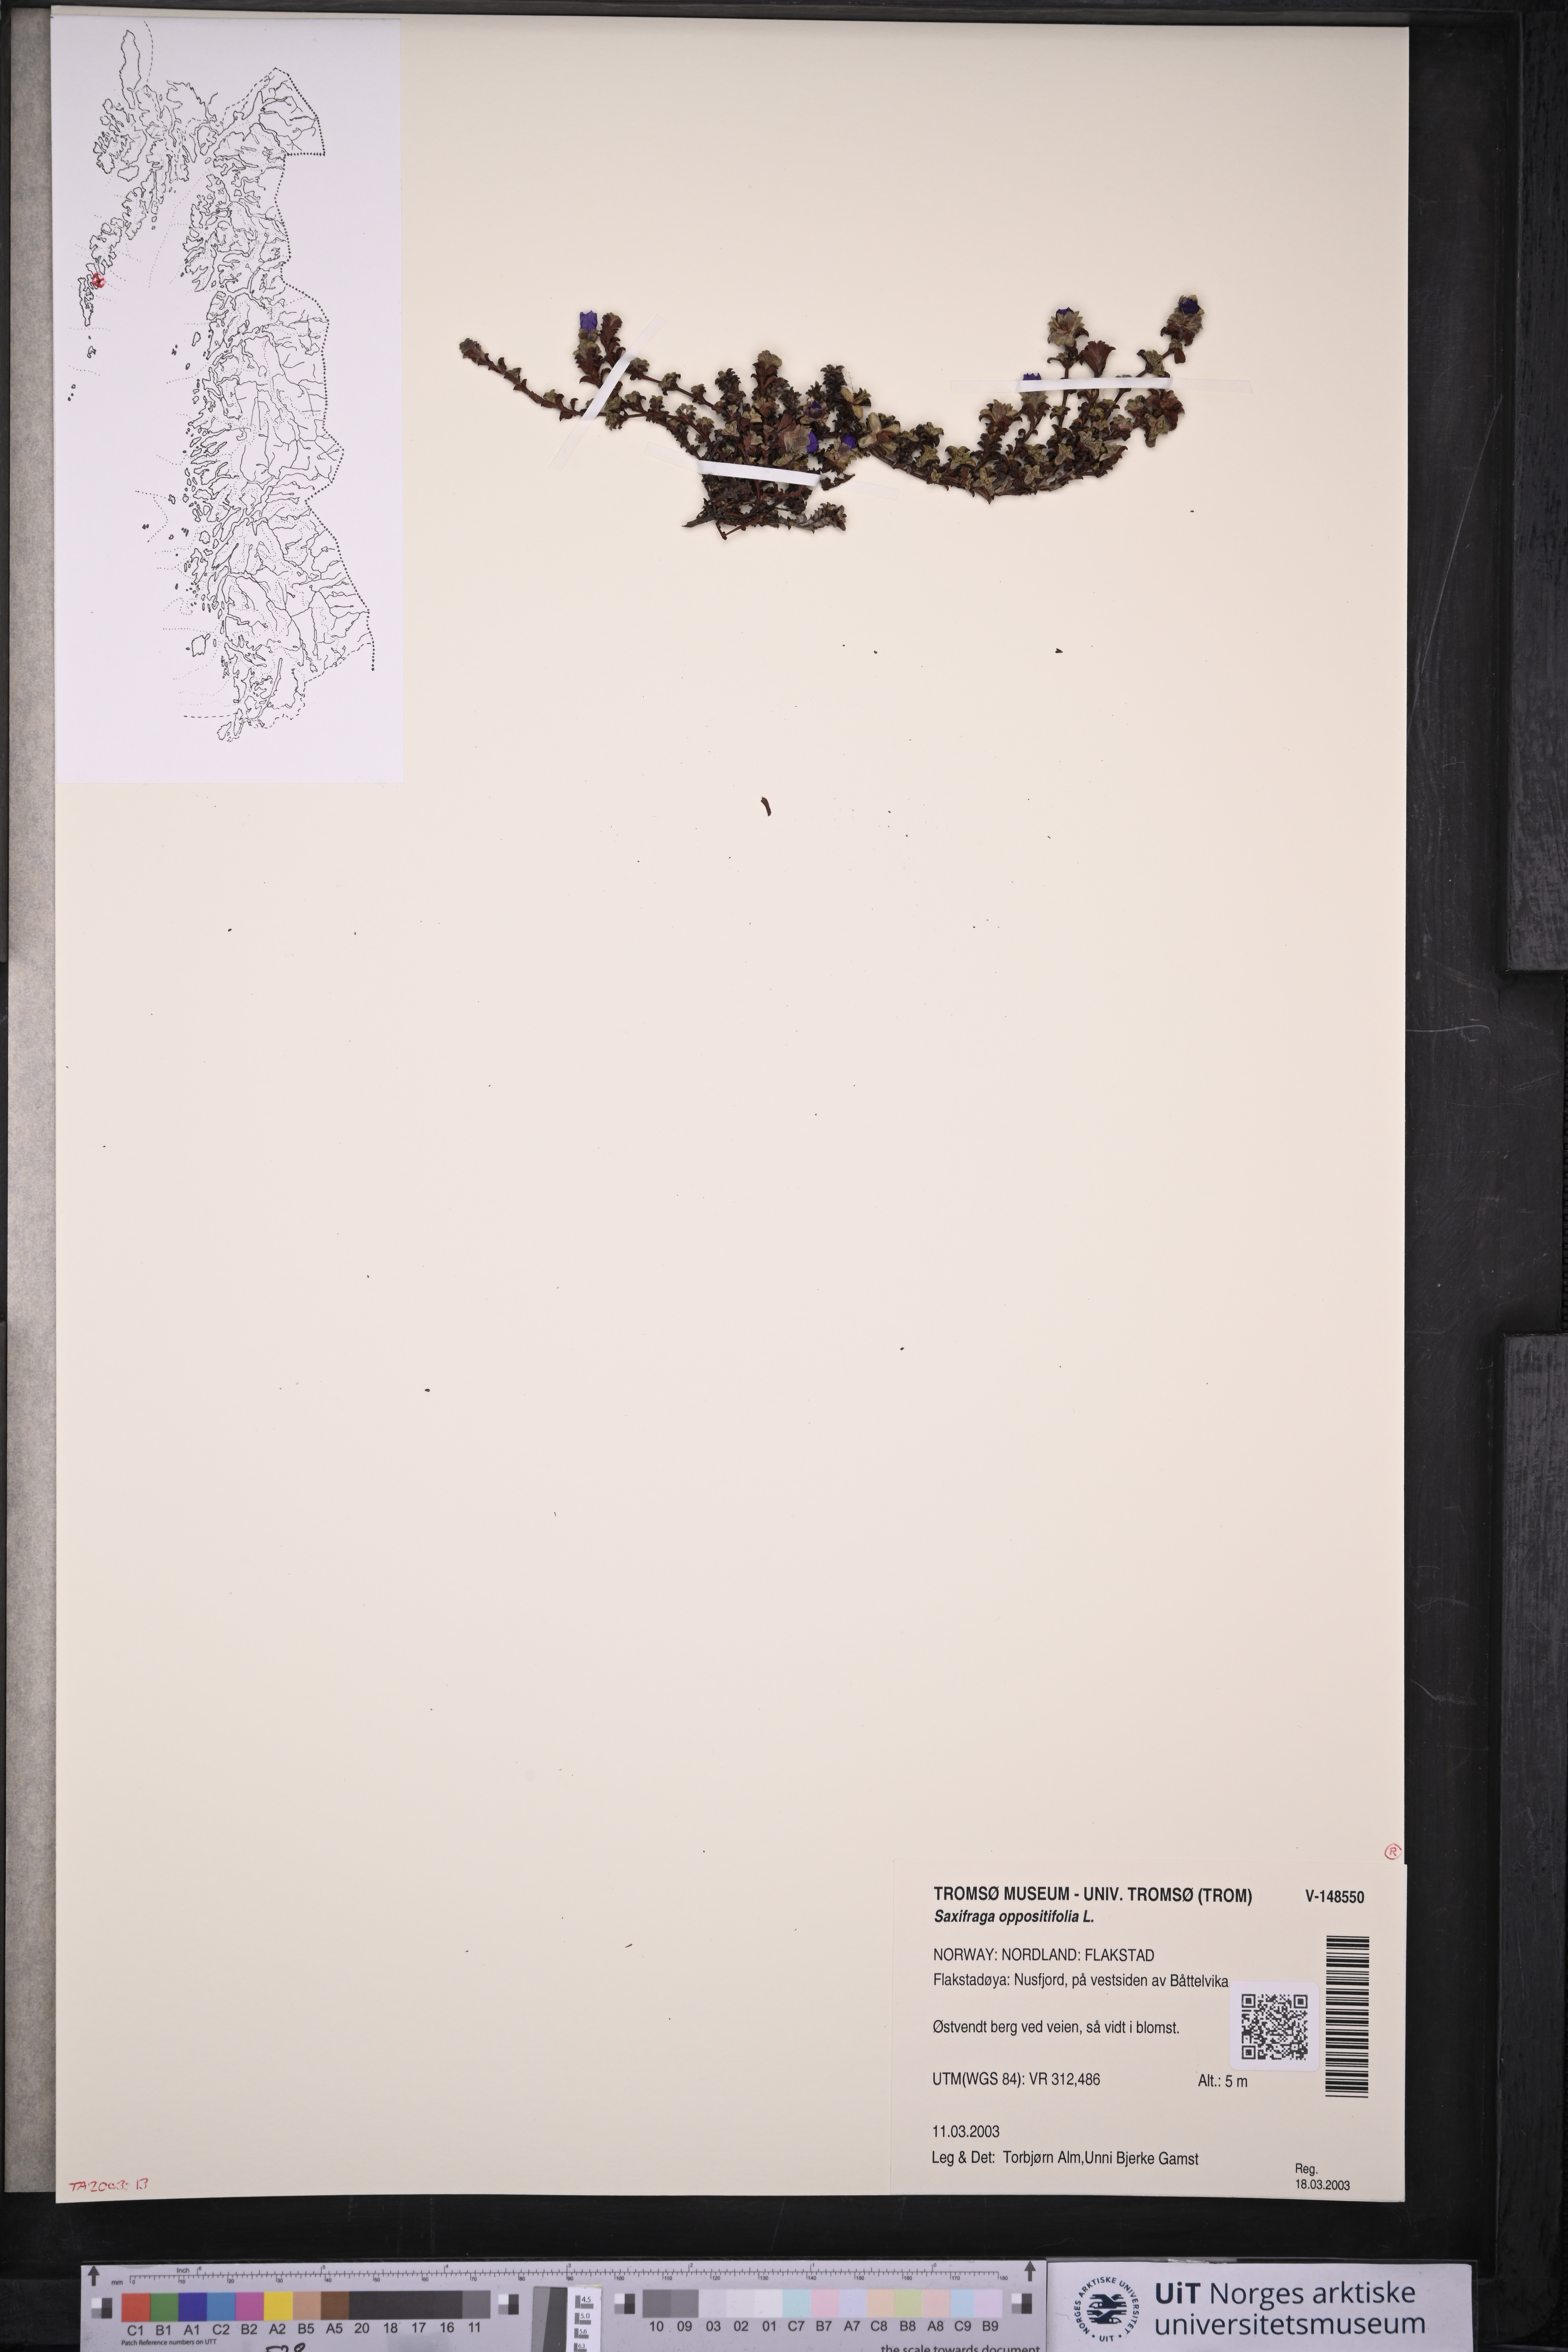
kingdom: Plantae
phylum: Tracheophyta
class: Magnoliopsida
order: Saxifragales
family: Saxifragaceae
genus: Saxifraga
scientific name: Saxifraga oppositifolia
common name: Purple saxifrage
